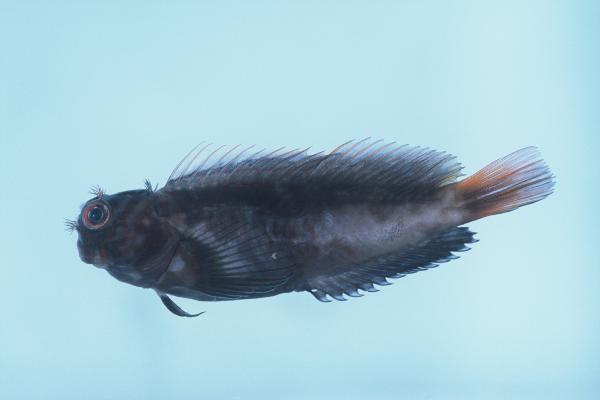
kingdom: Animalia
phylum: Chordata
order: Perciformes
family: Blenniidae
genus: Cirripectes
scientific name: Cirripectes castaneus
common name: Chestnut blenny
